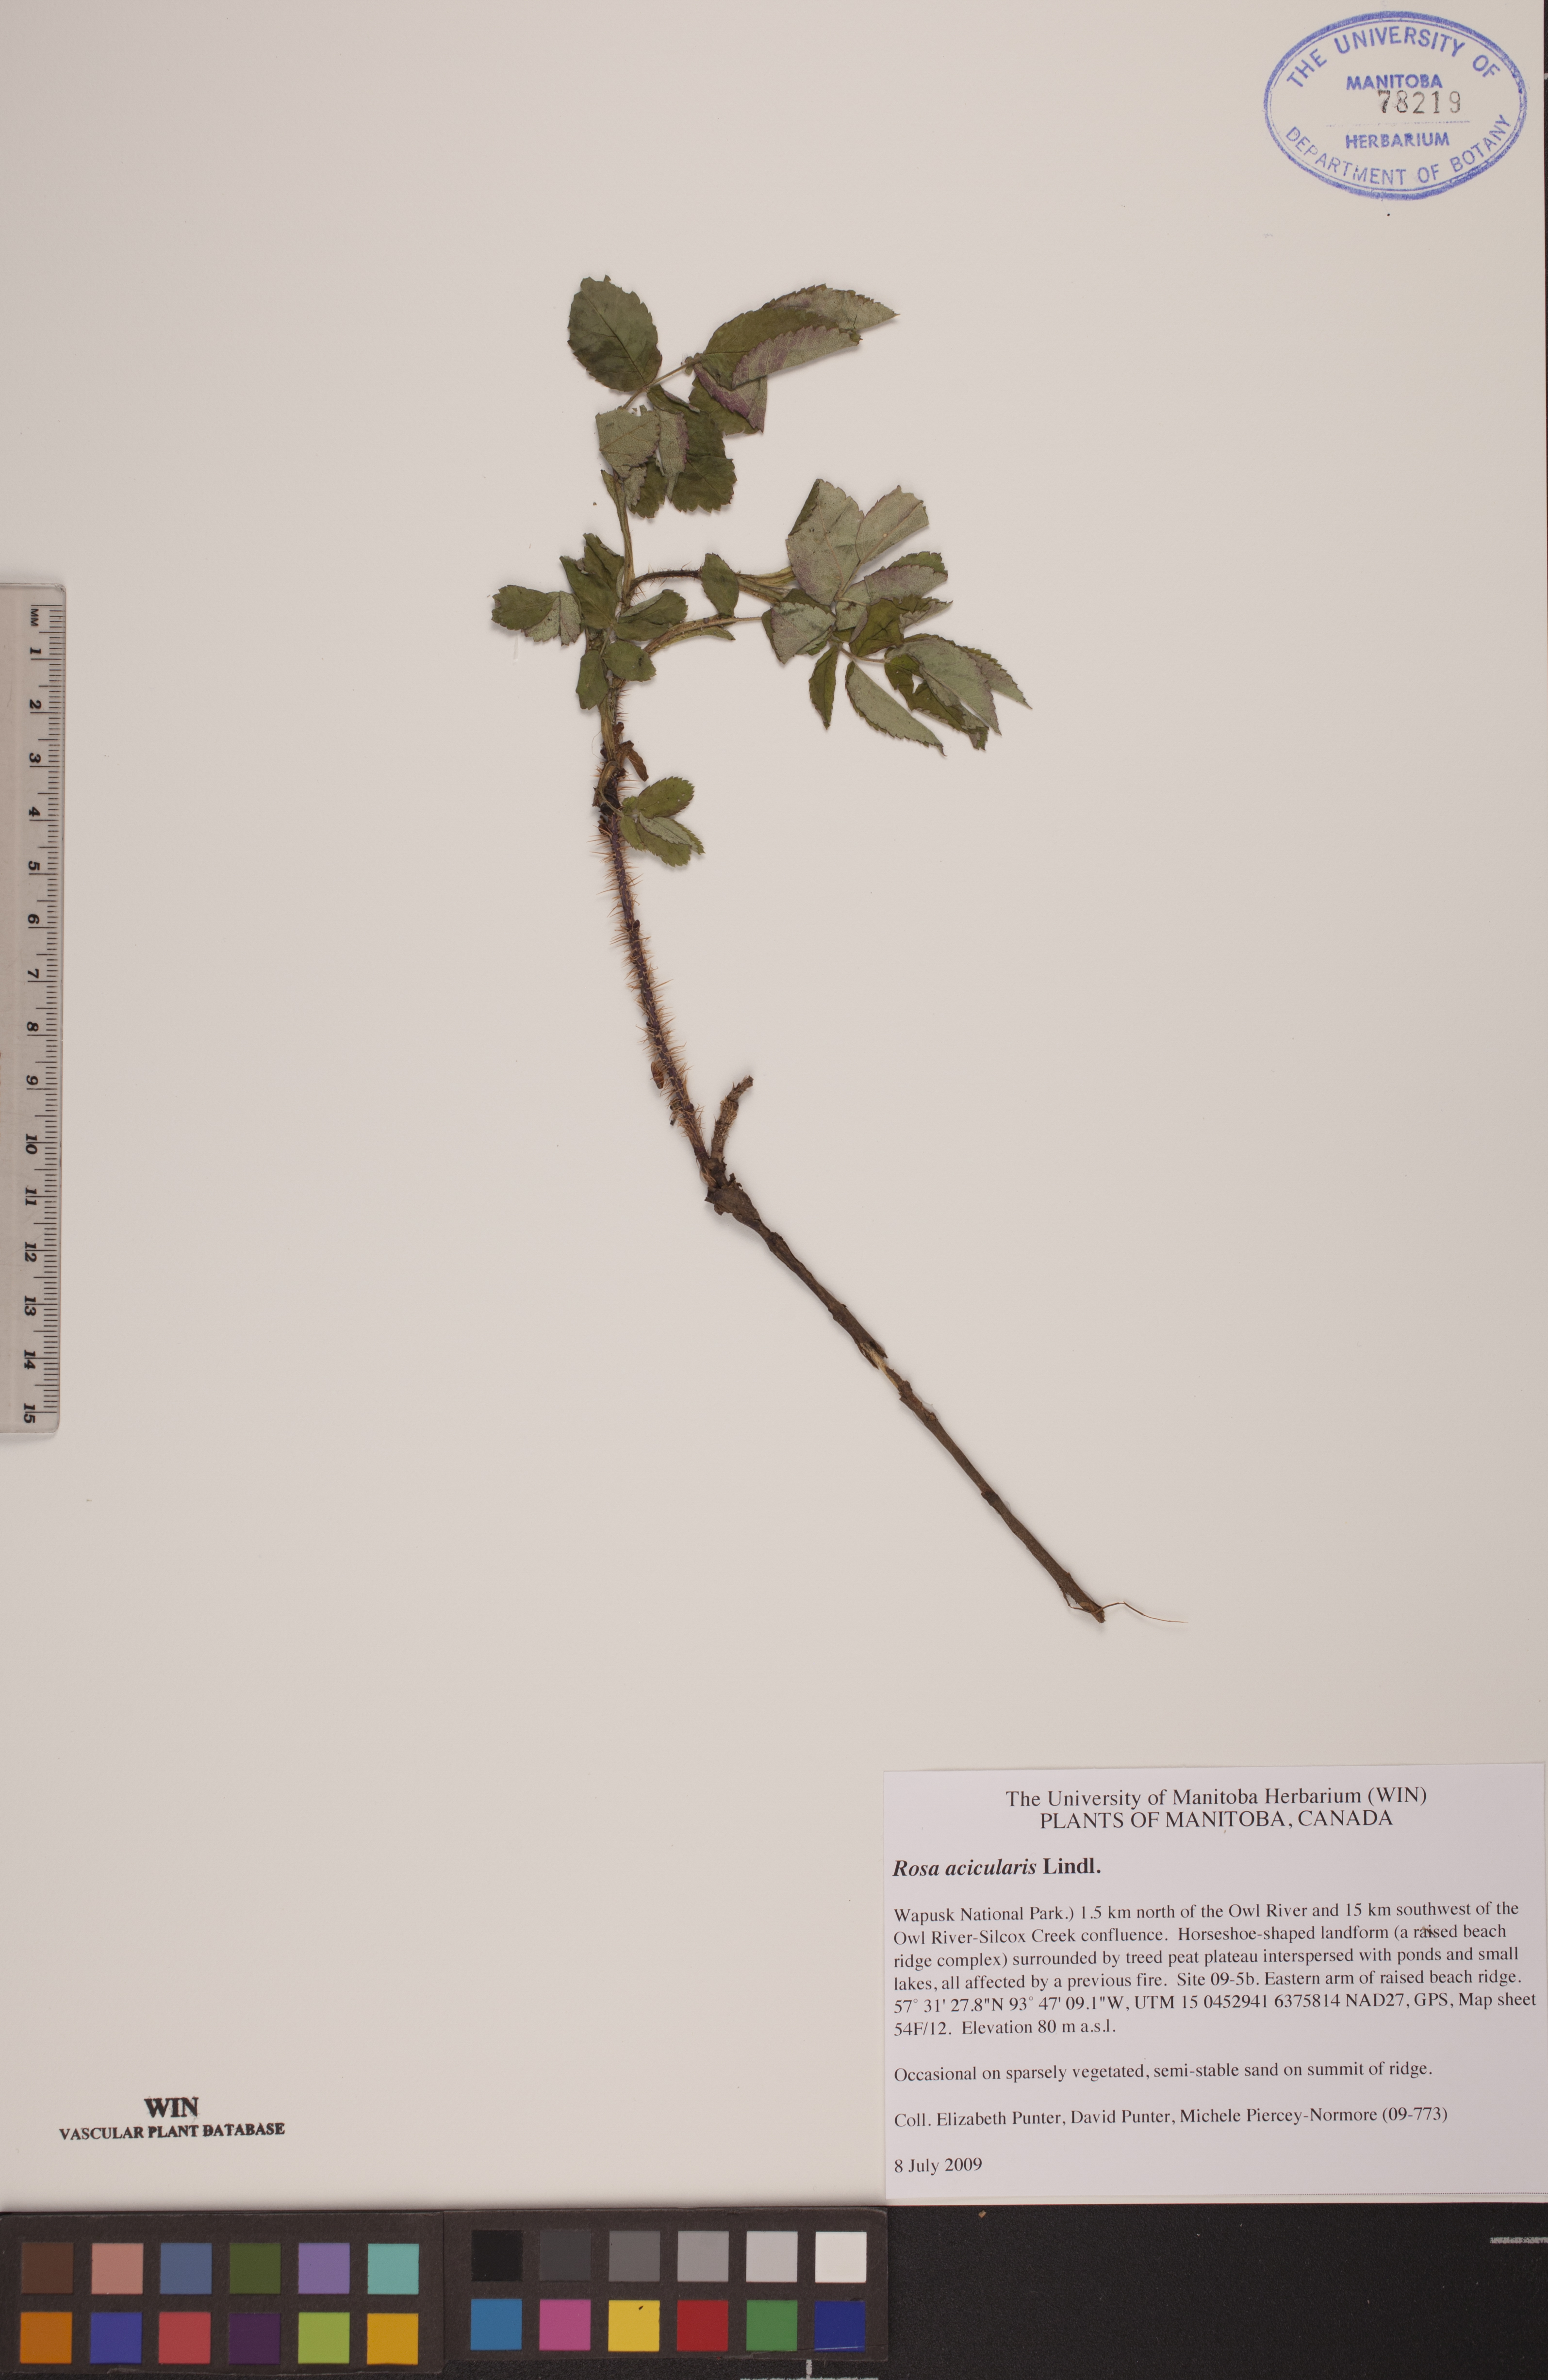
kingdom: Plantae
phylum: Tracheophyta
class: Magnoliopsida
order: Rosales
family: Rosaceae
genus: Rosa
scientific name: Rosa acicularis
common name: Prickly rose
